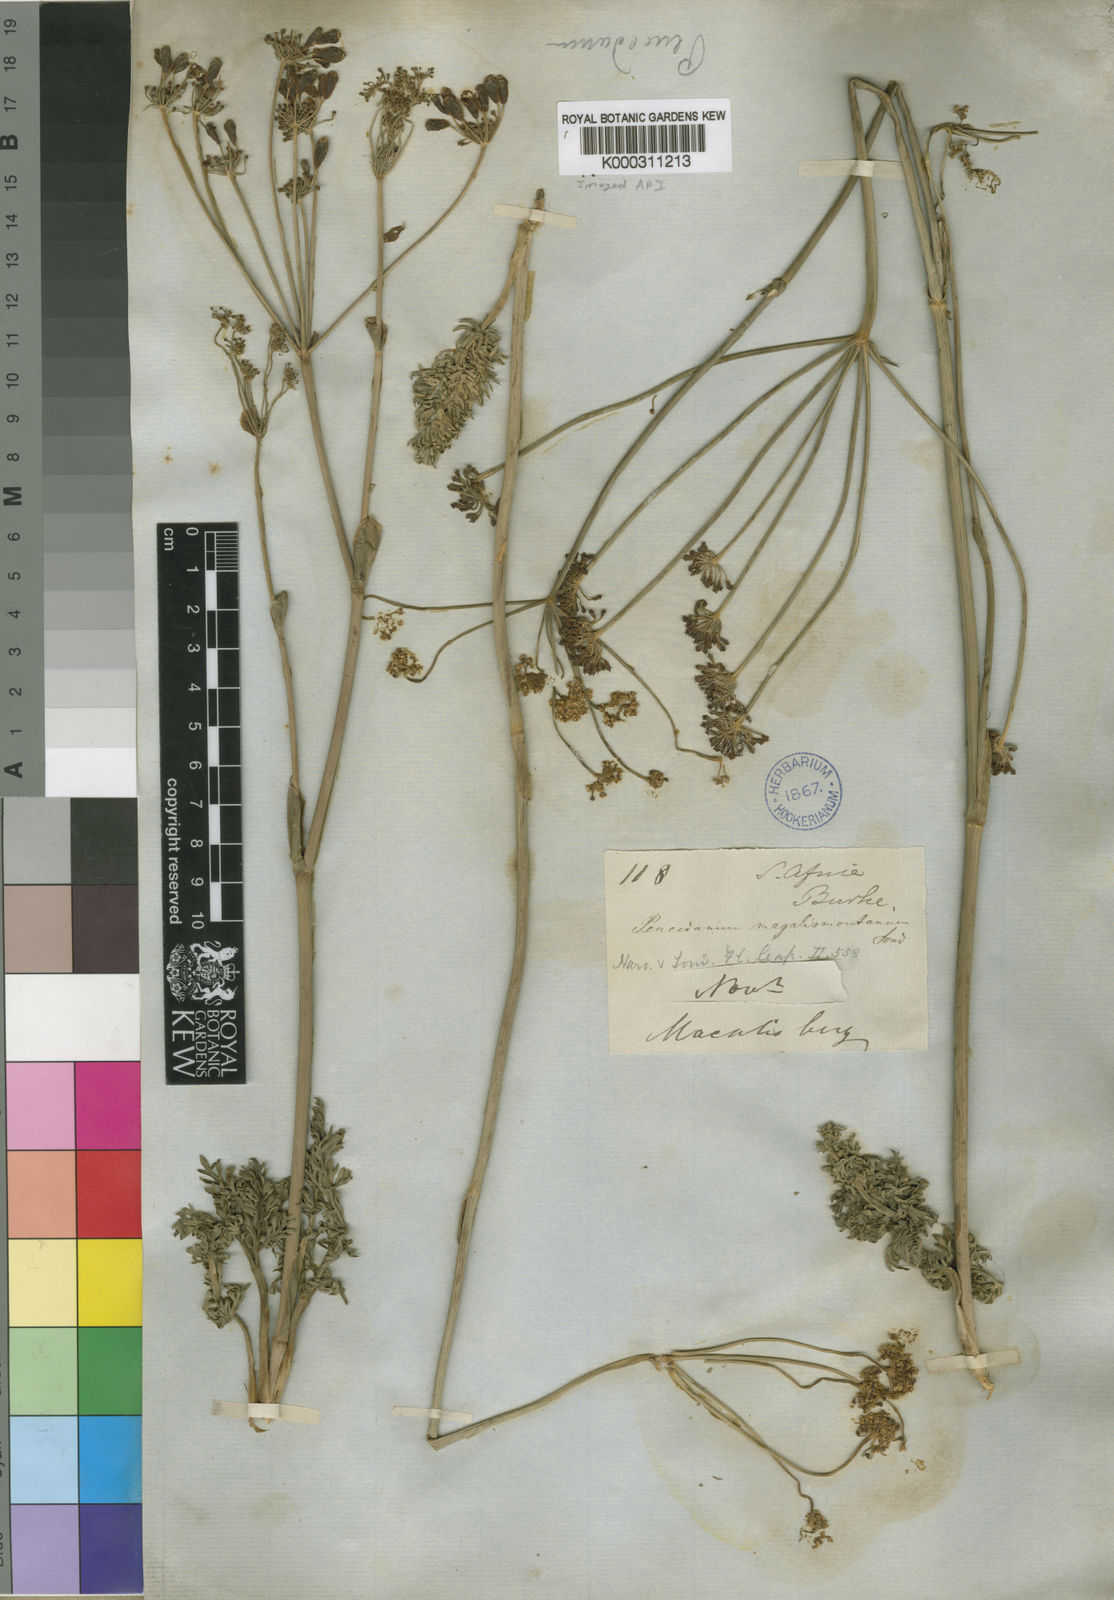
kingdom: Plantae
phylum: Tracheophyta
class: Magnoliopsida
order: Apiales
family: Apiaceae
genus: Afrosciadium
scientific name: Afrosciadium magalismontanum
